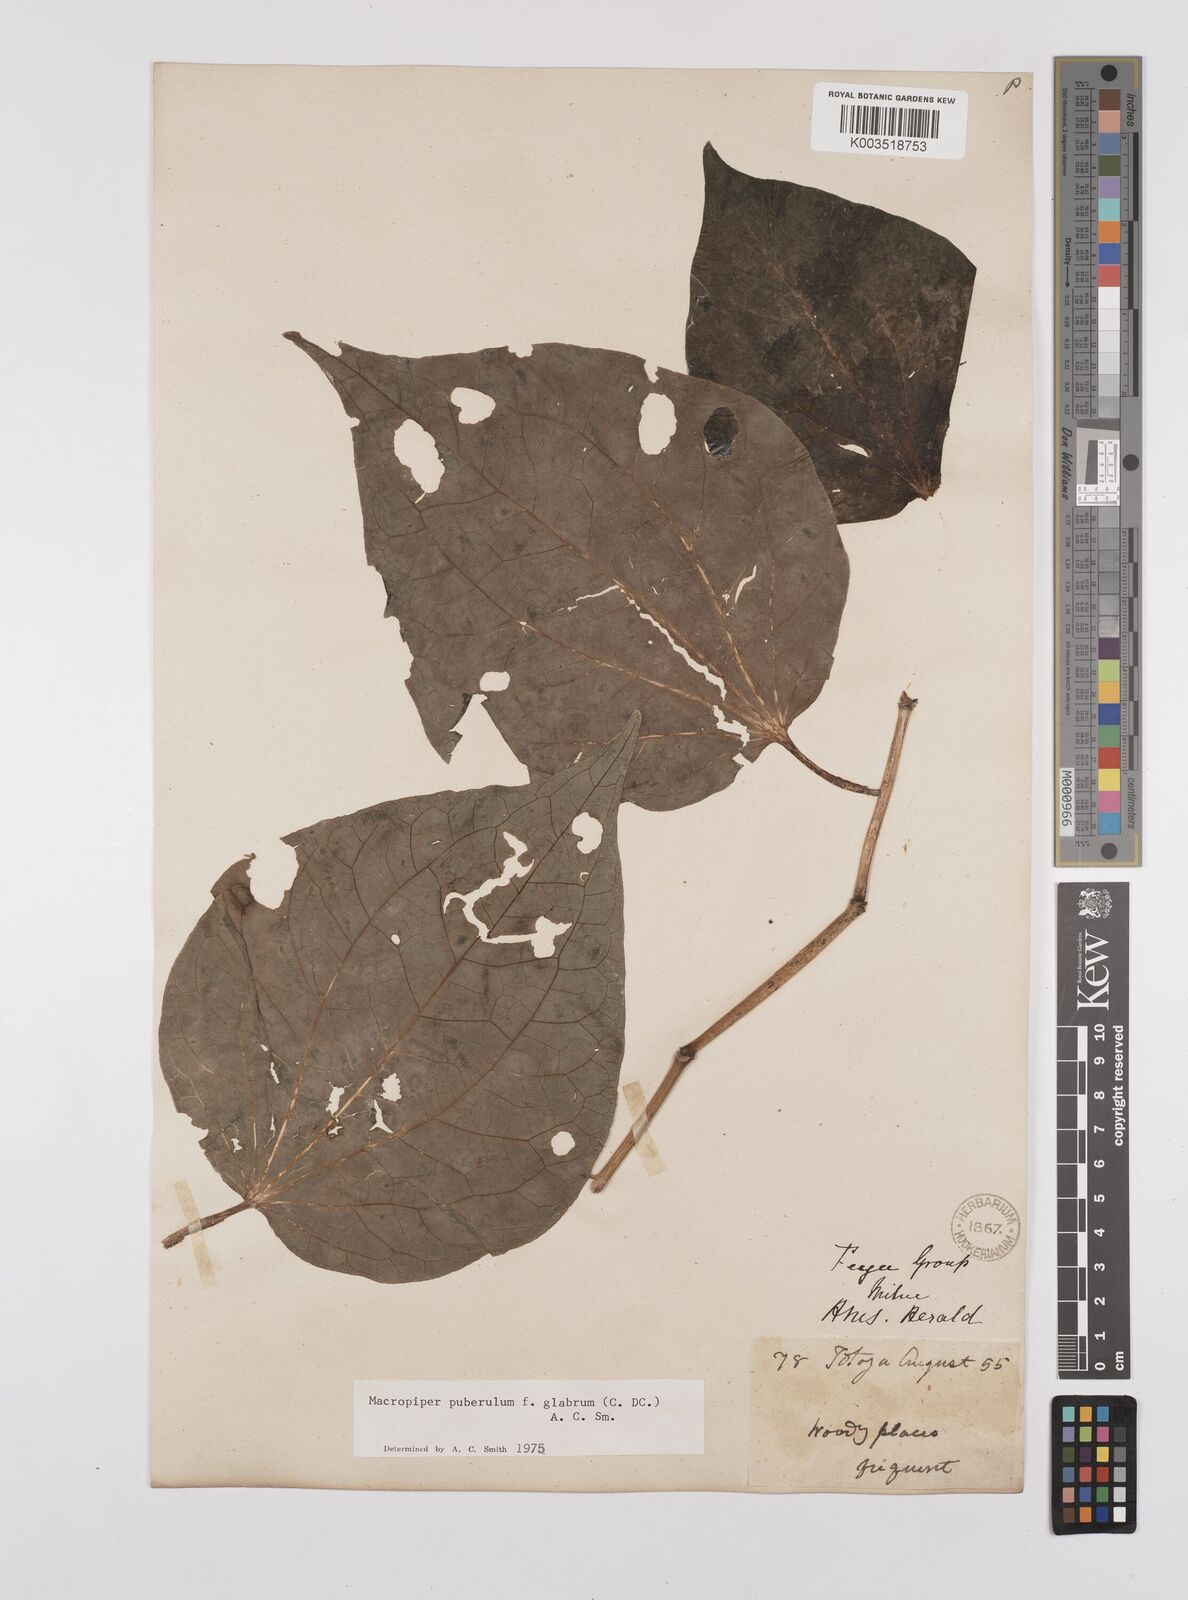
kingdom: Plantae
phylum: Tracheophyta
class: Magnoliopsida
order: Piperales
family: Piperaceae
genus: Macropiper
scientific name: Macropiper puberulum
